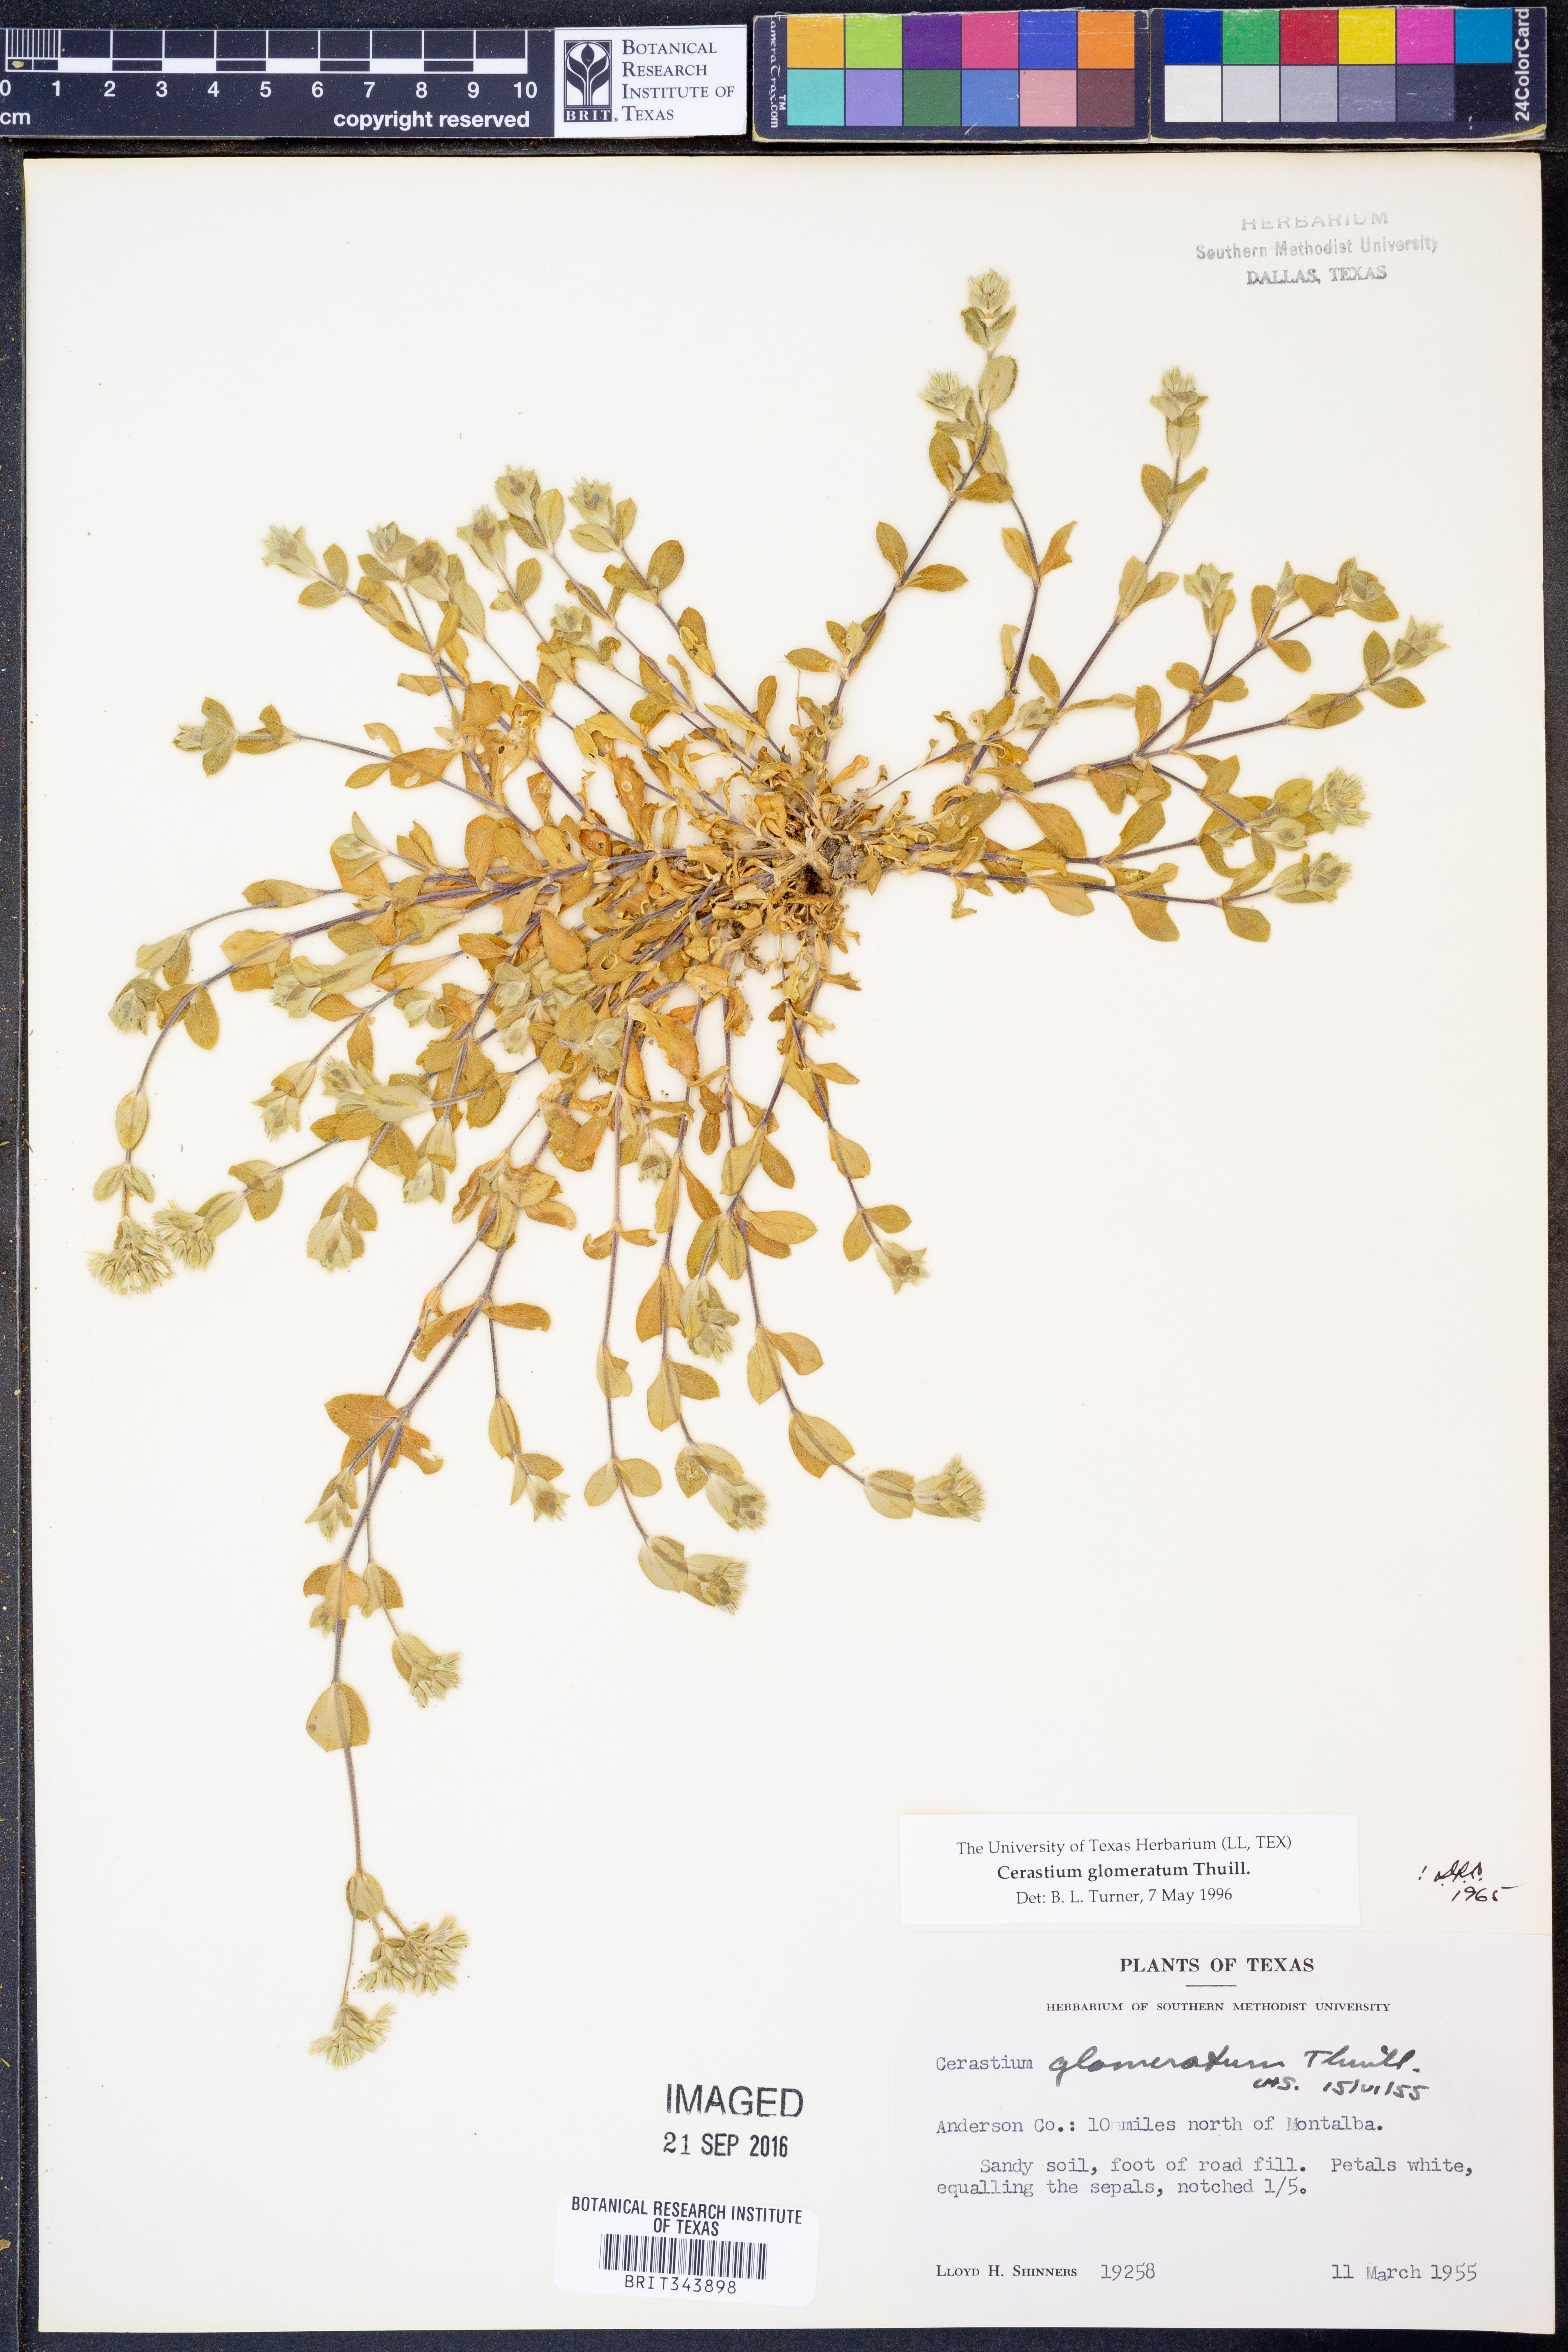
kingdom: Plantae
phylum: Tracheophyta
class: Magnoliopsida
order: Caryophyllales
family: Caryophyllaceae
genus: Cerastium
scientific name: Cerastium glomeratum
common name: Sticky chickweed
